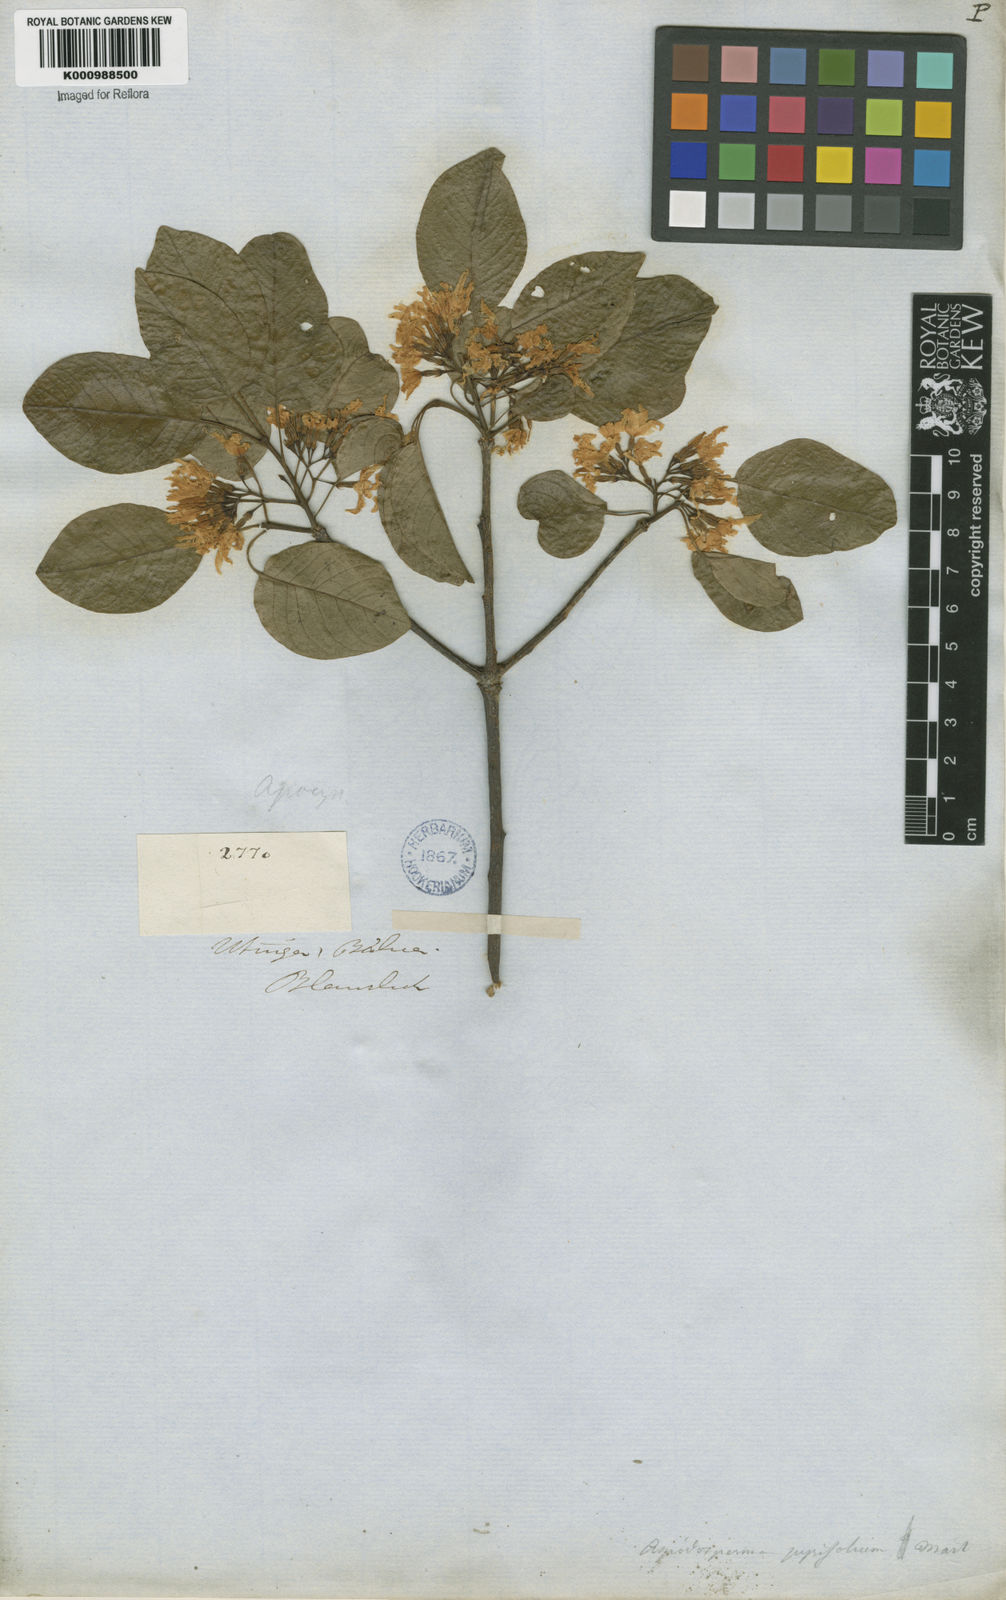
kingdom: Plantae
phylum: Tracheophyta
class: Magnoliopsida
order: Gentianales
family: Apocynaceae
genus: Aspidosperma
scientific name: Aspidosperma pyrifolium
